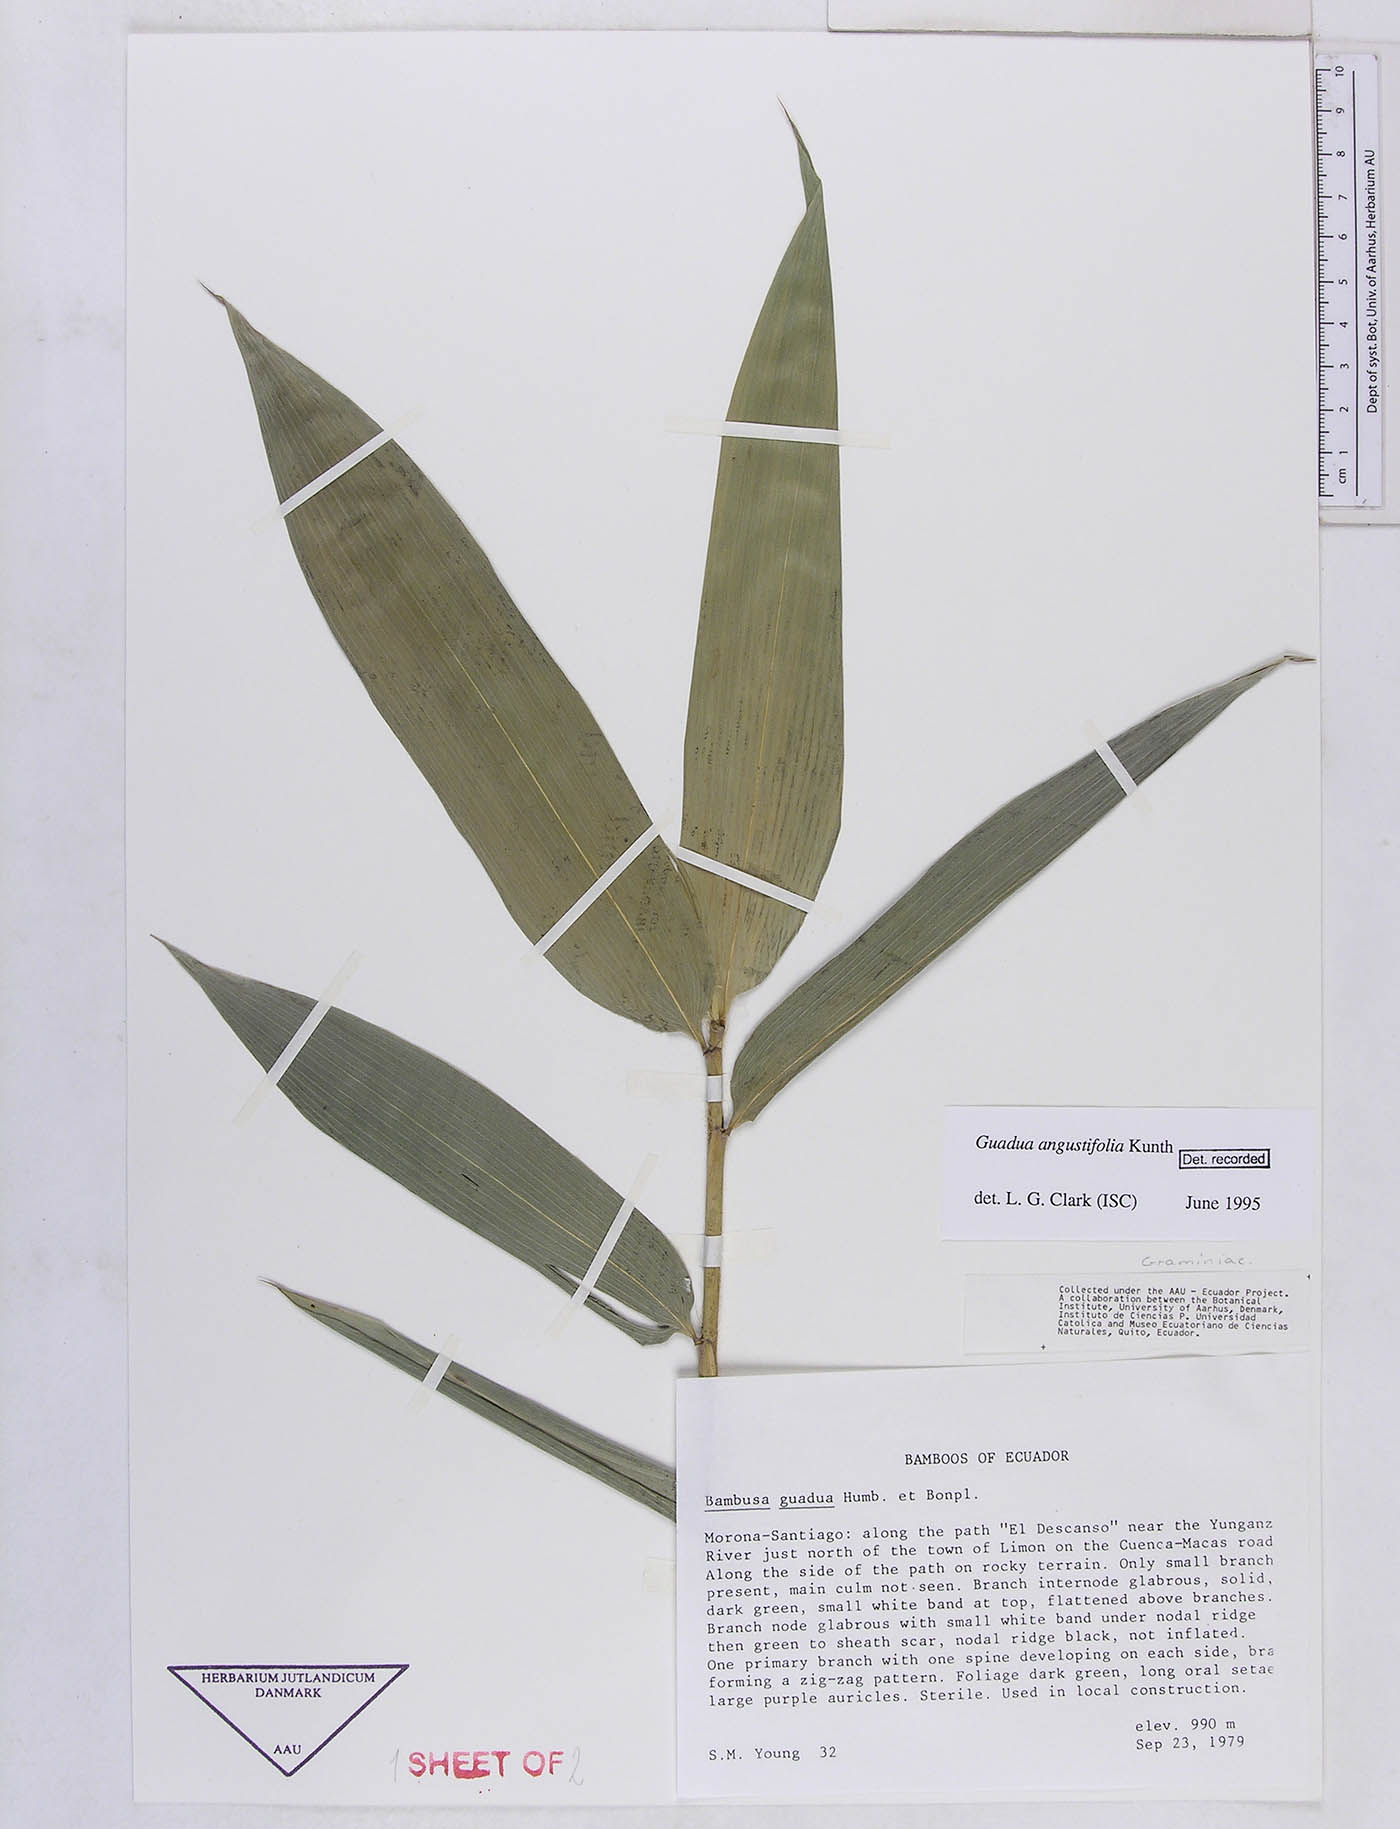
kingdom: Plantae
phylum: Tracheophyta
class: Liliopsida
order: Poales
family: Poaceae
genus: Guadua
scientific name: Guadua angustifolia
